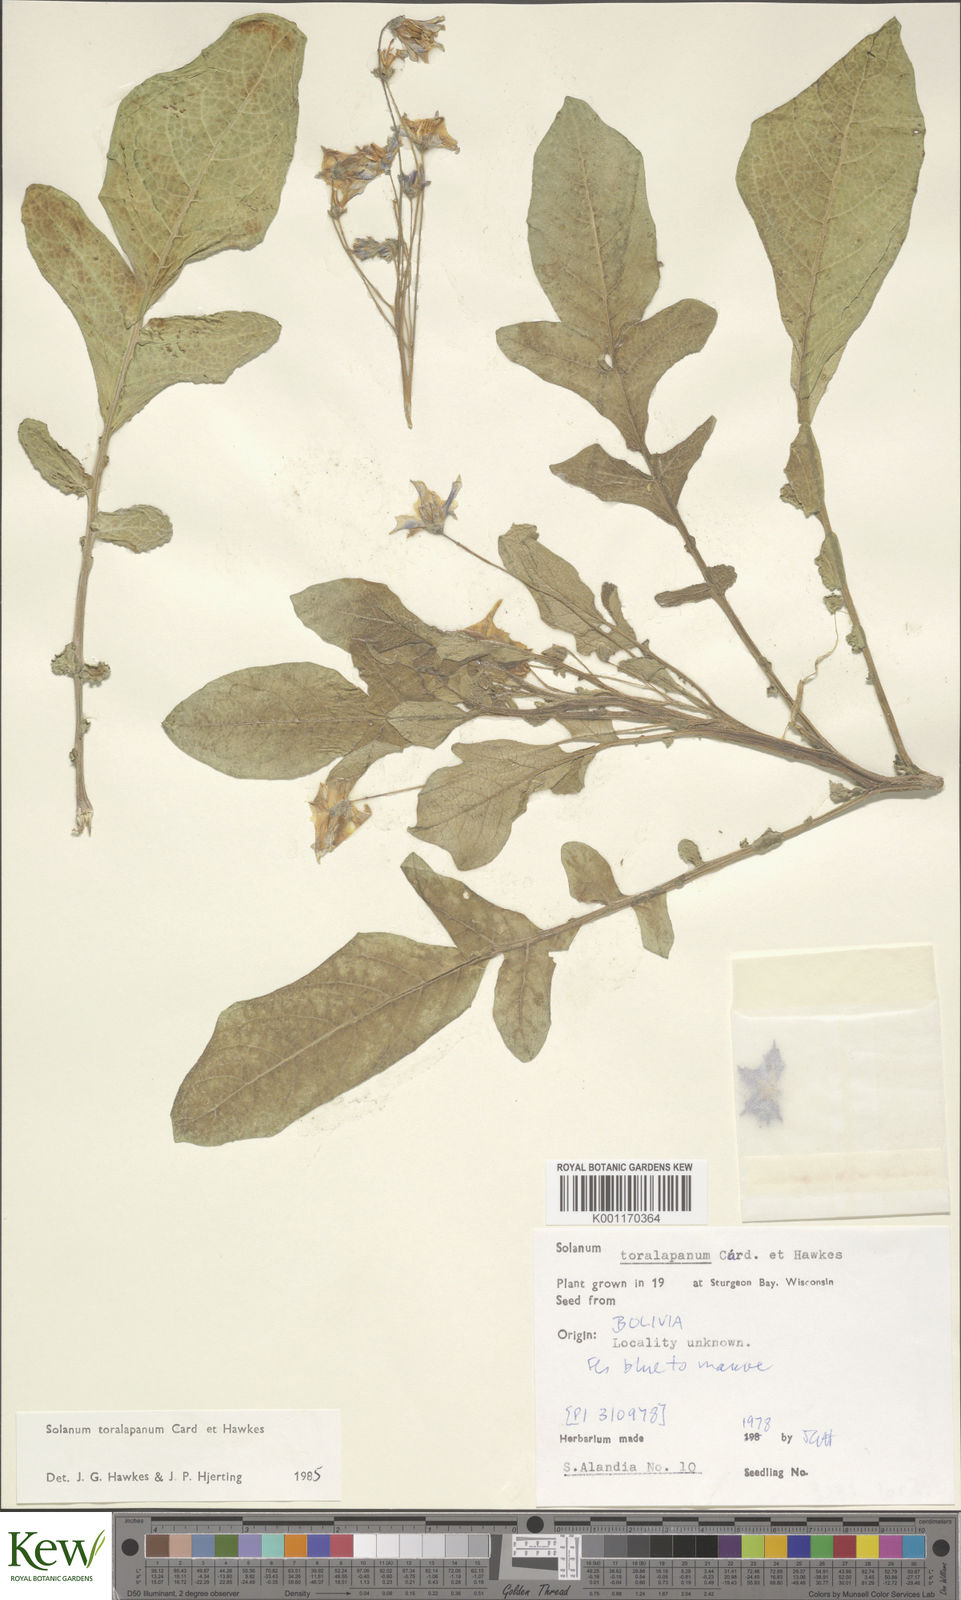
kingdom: Plantae
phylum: Tracheophyta
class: Magnoliopsida
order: Solanales
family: Solanaceae
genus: Solanum
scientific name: Solanum
